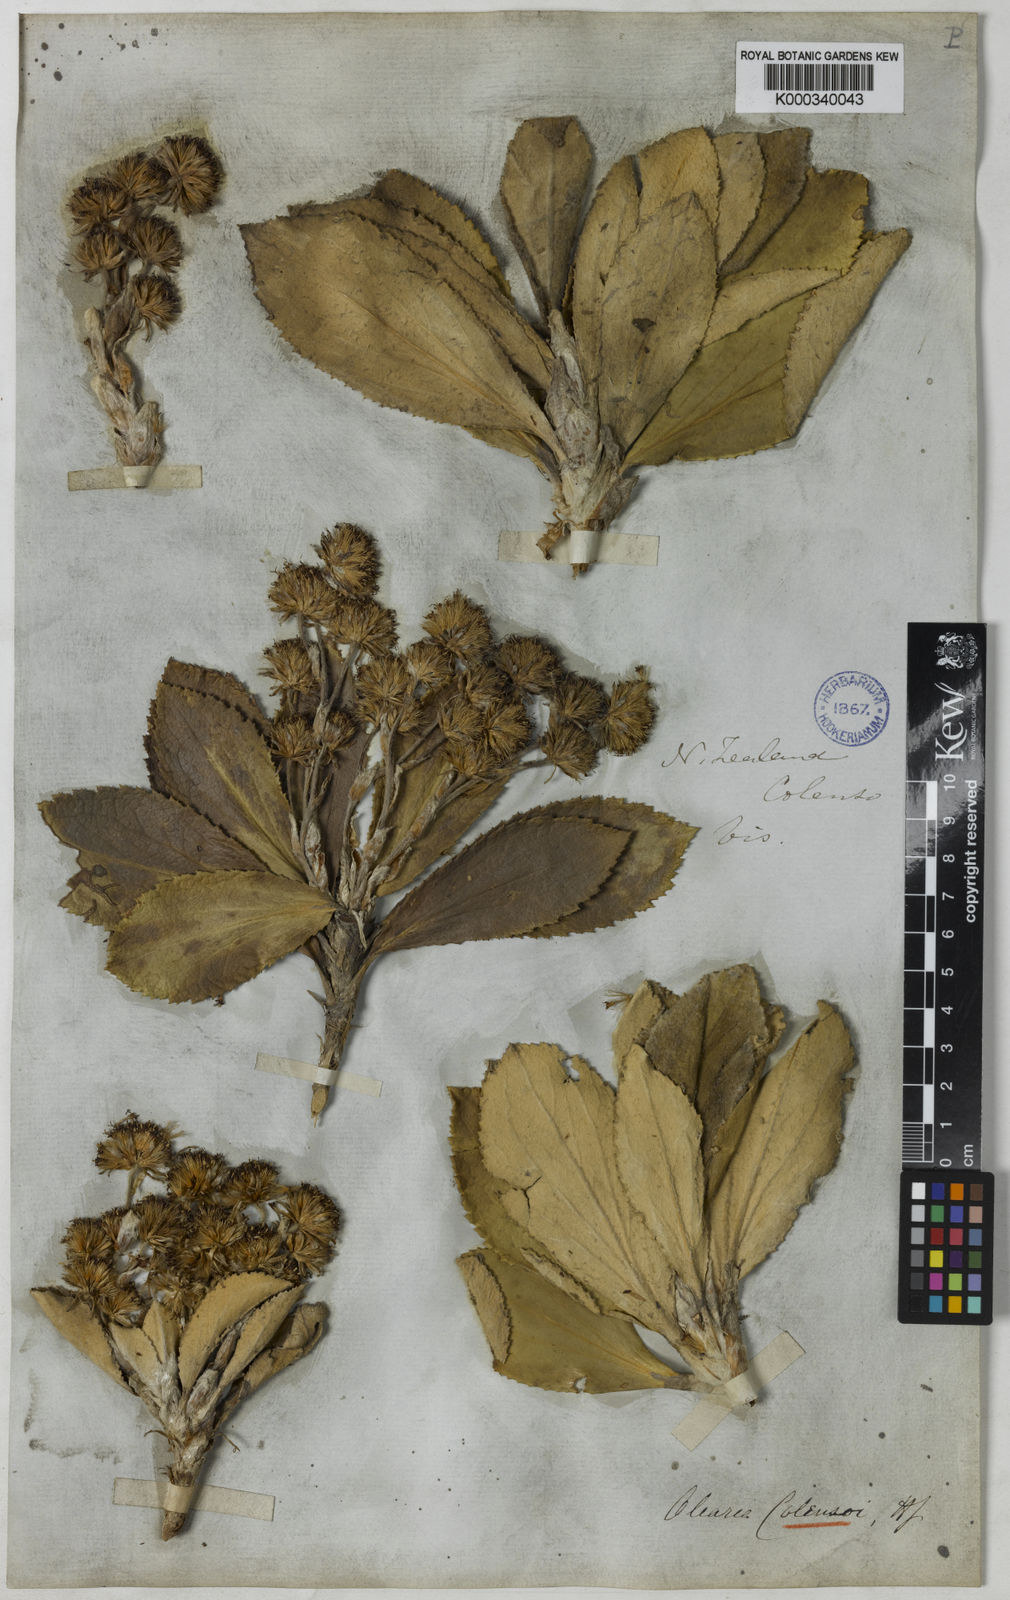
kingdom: Plantae
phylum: Tracheophyta
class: Magnoliopsida
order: Asterales
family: Asteraceae
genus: Macrolearia
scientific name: Macrolearia colensoi
